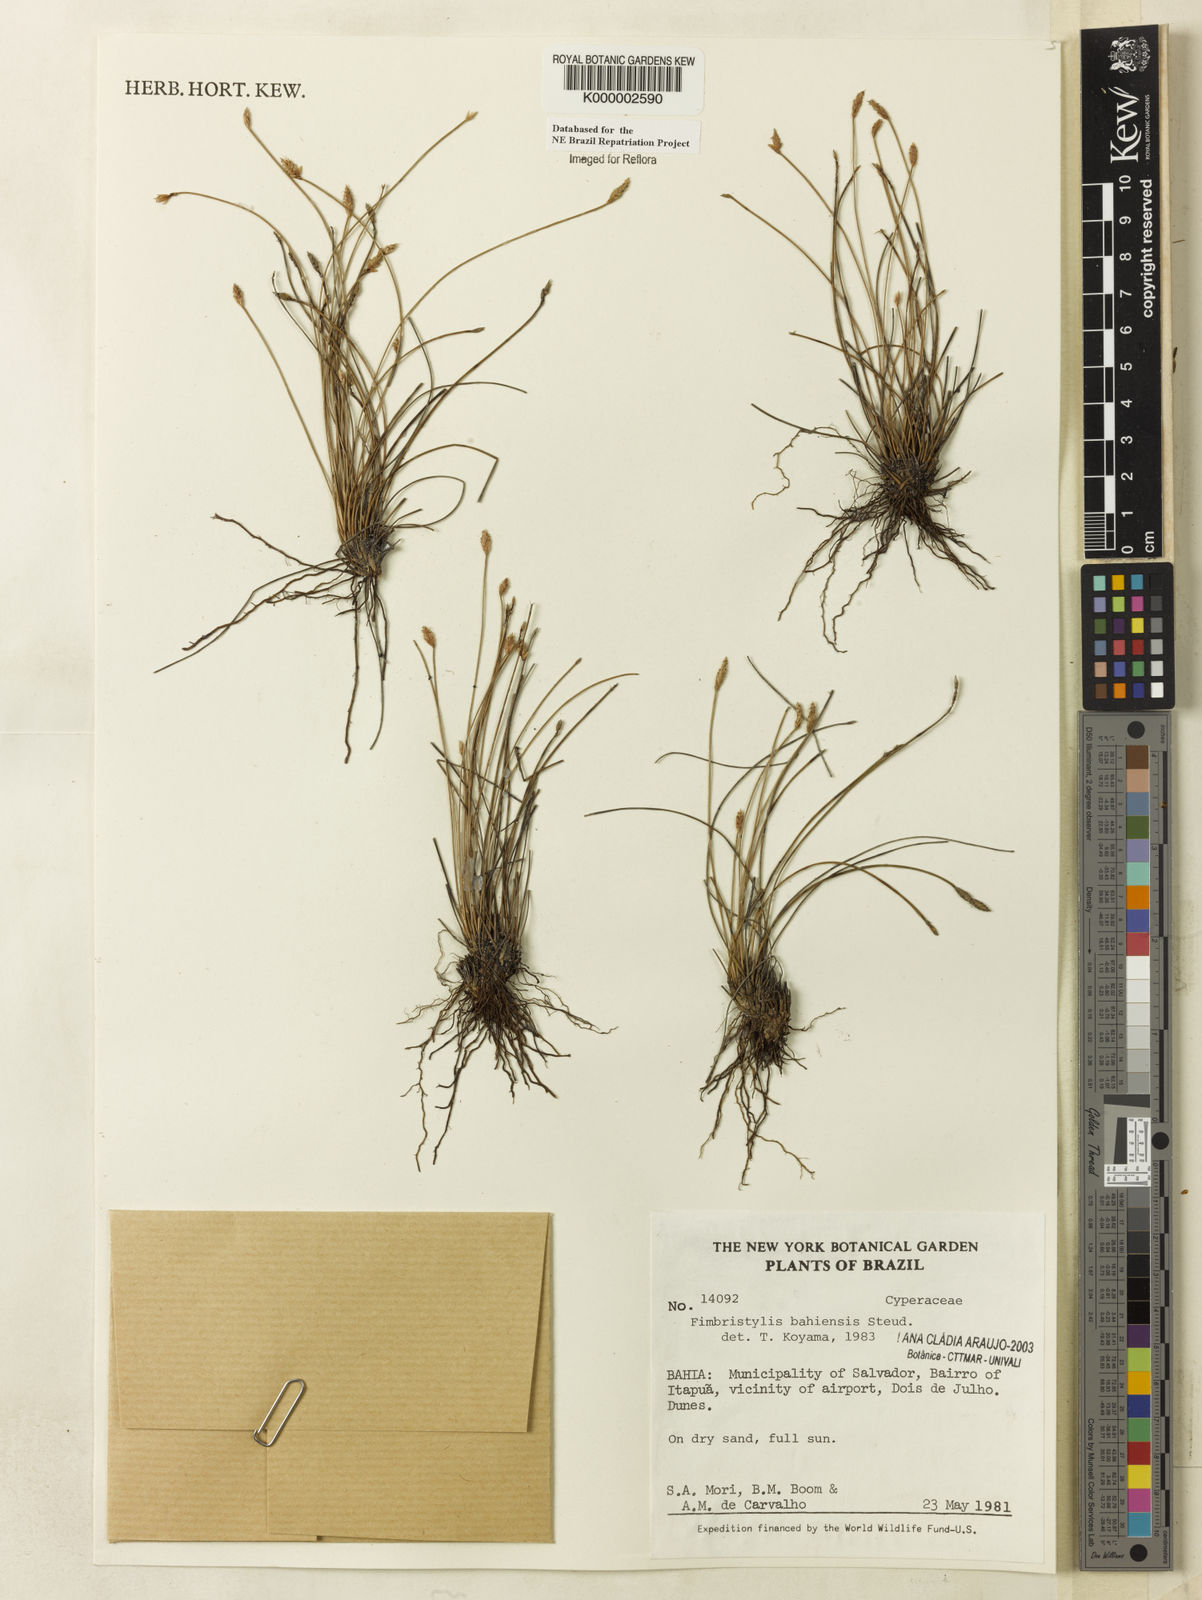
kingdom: Plantae
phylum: Tracheophyta
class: Liliopsida
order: Poales
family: Cyperaceae
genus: Fimbristylis
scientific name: Fimbristylis bahiensis
